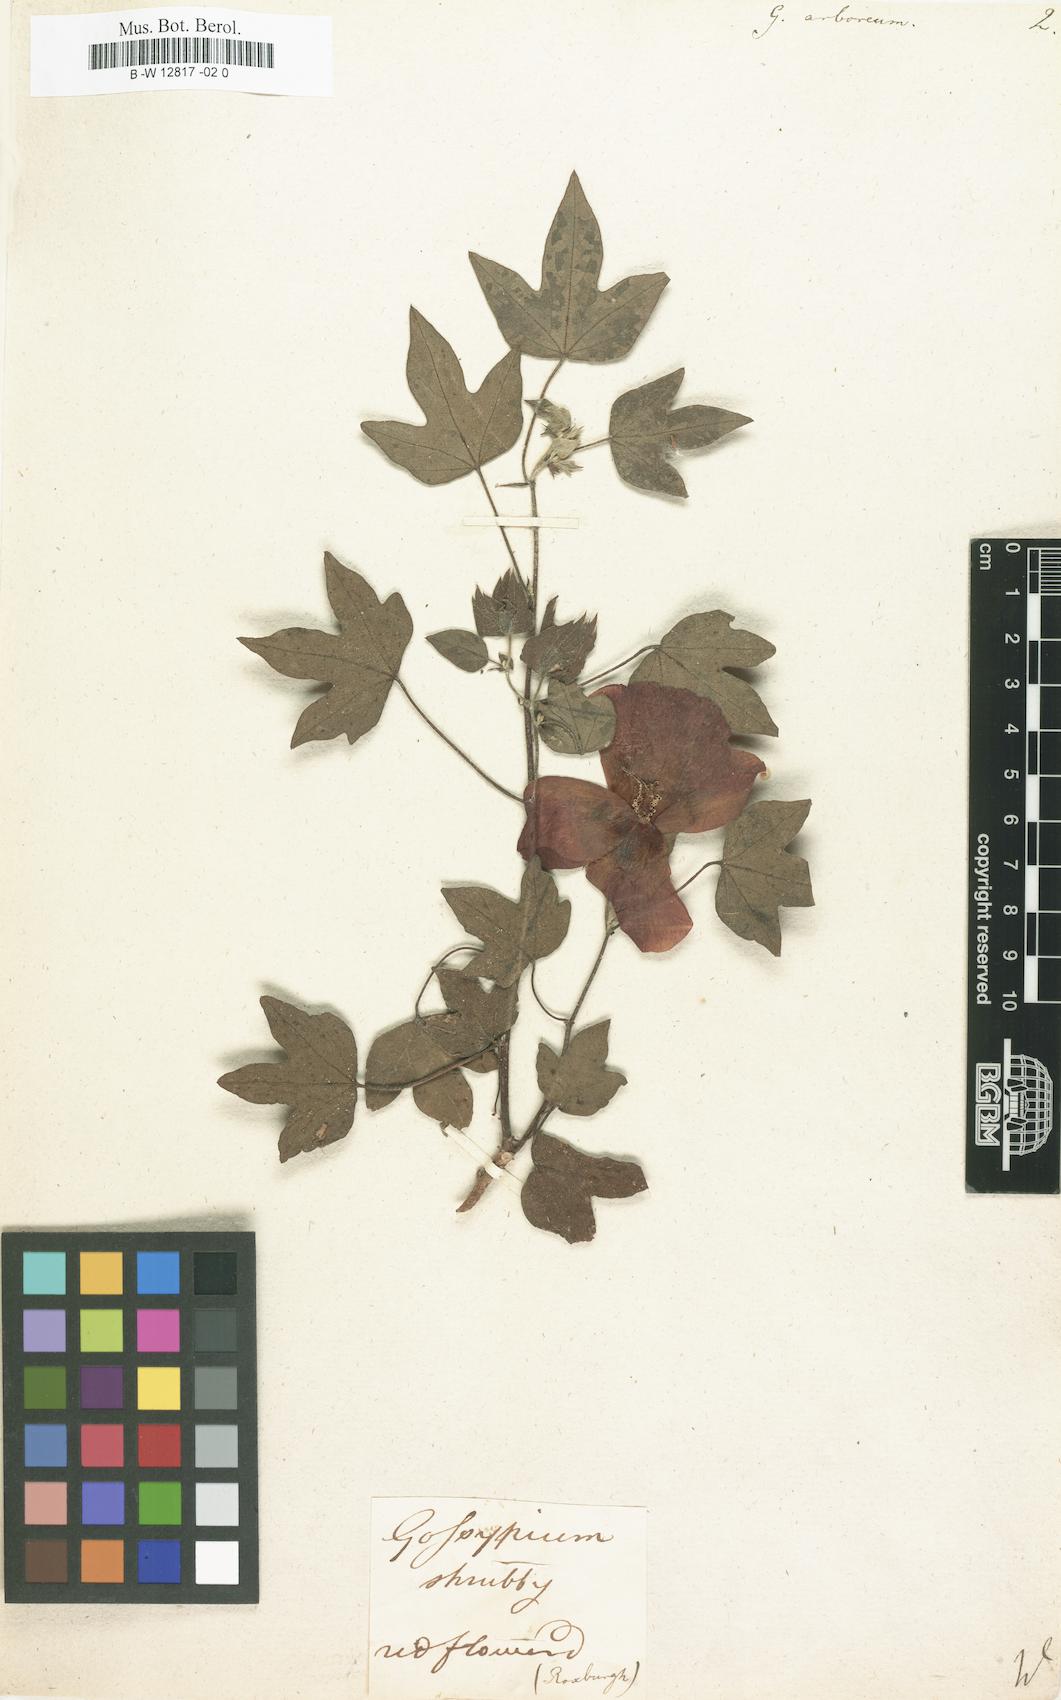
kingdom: Plantae
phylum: Tracheophyta
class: Magnoliopsida
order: Malvales
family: Malvaceae
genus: Gossypium
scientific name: Gossypium arboreum
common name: Tree cotton
